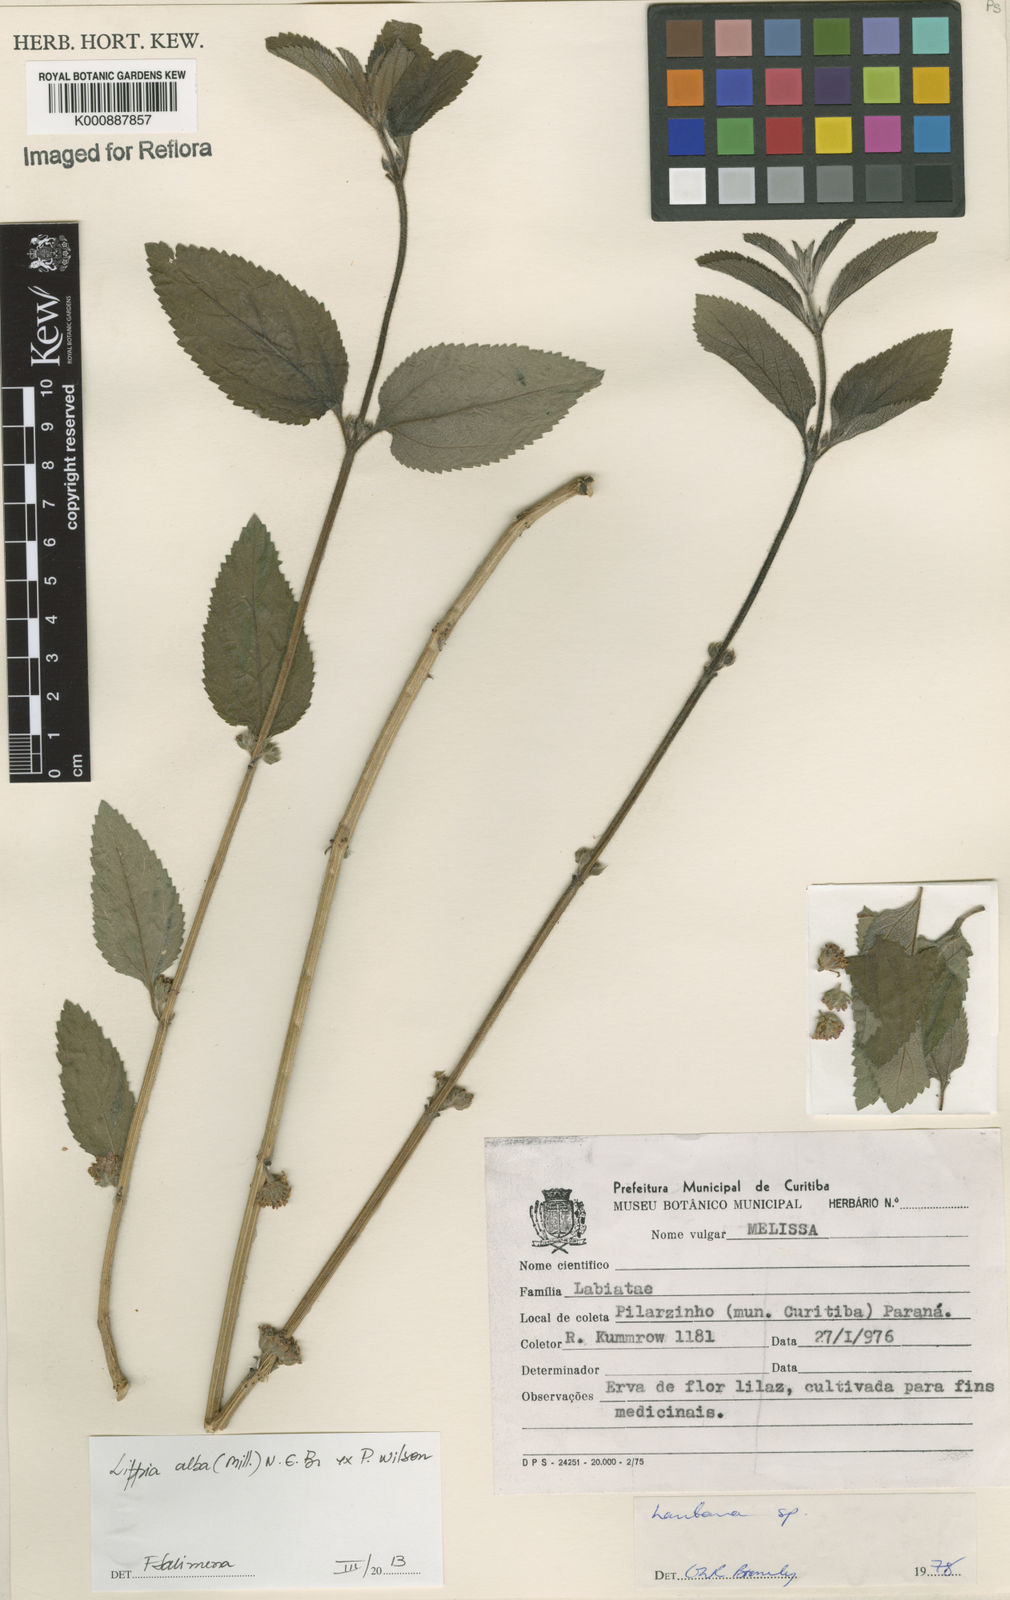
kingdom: Plantae
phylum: Tracheophyta
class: Magnoliopsida
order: Lamiales
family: Verbenaceae
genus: Lippia
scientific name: Lippia
